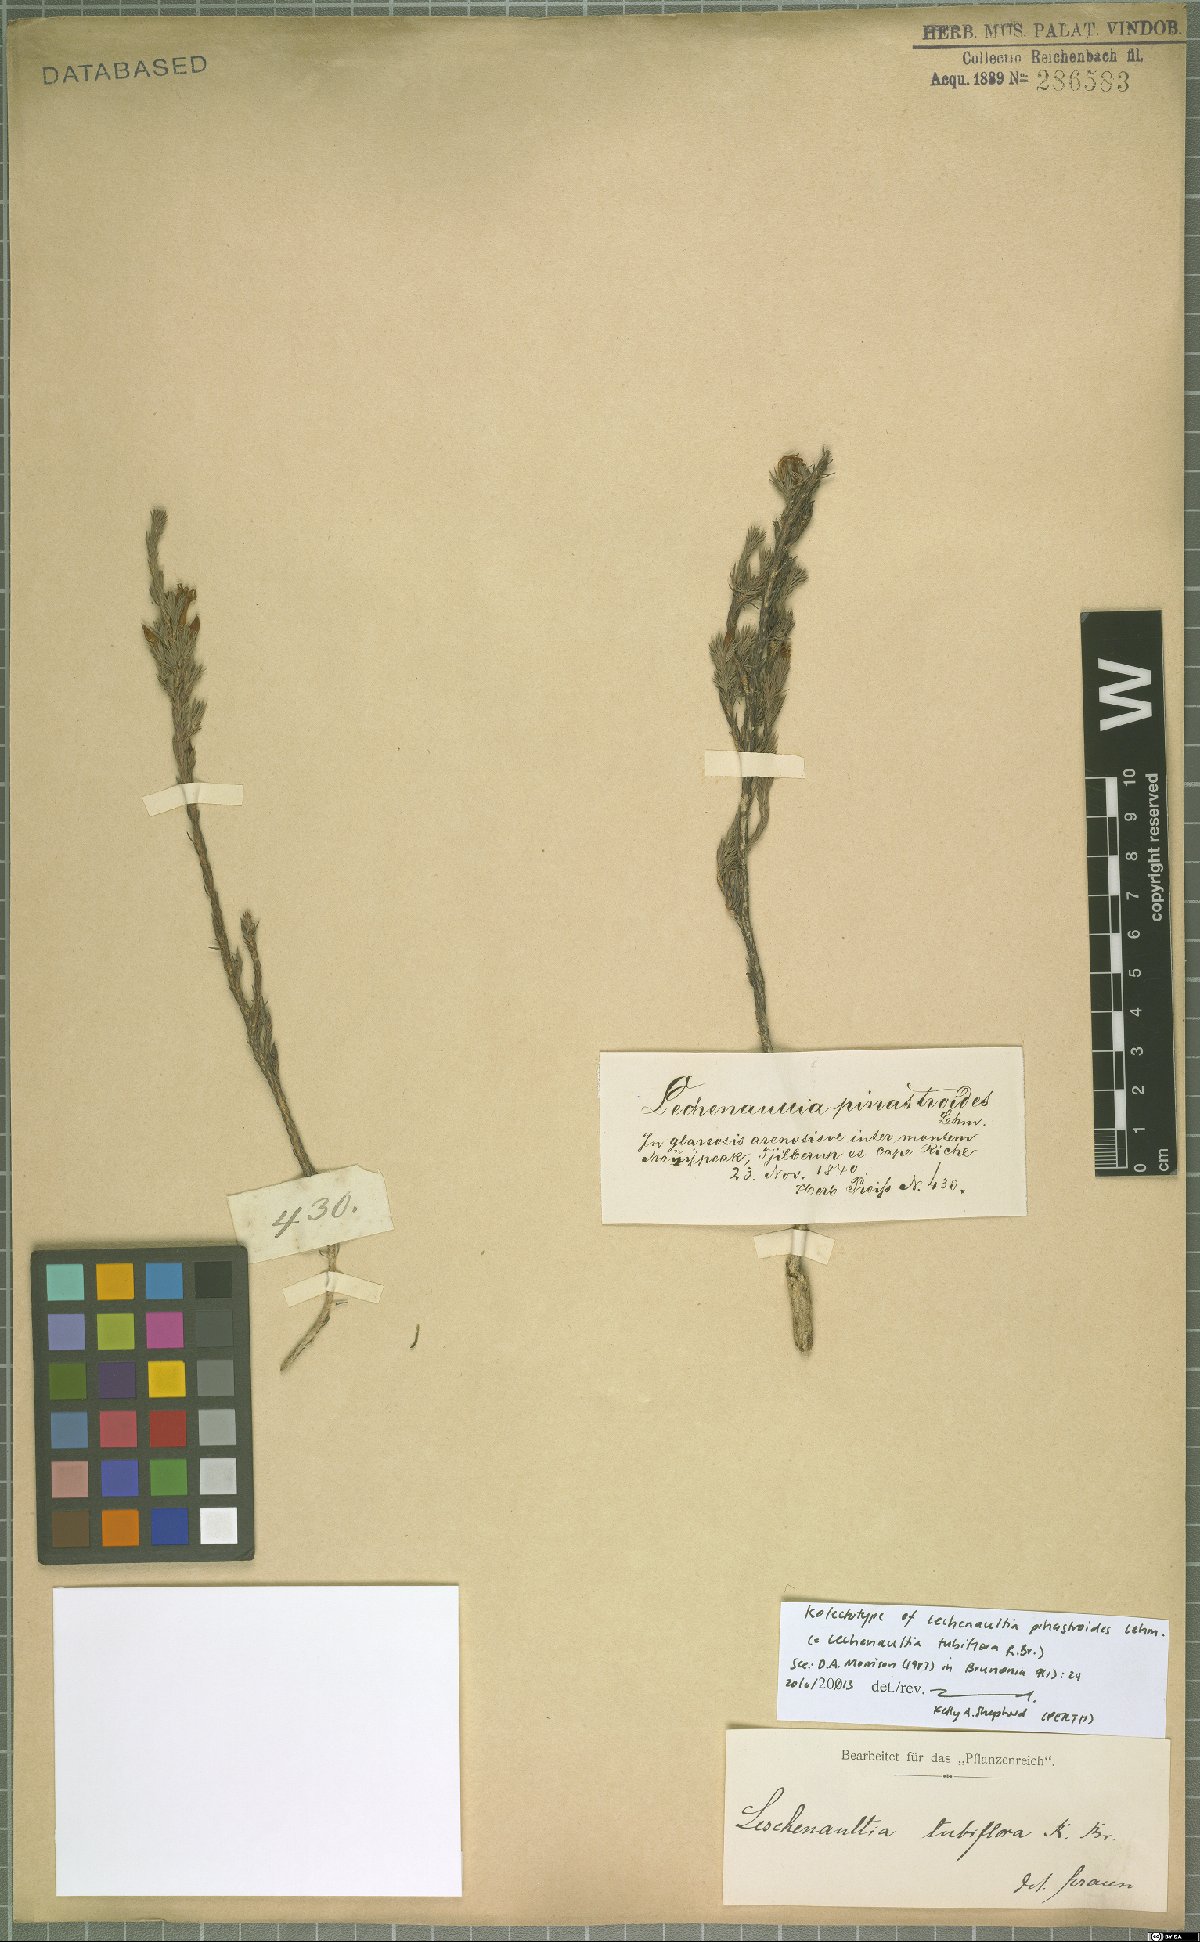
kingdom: Plantae
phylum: Tracheophyta
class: Magnoliopsida
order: Asterales
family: Goodeniaceae
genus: Lechenaultia
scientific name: Lechenaultia tubiflora
